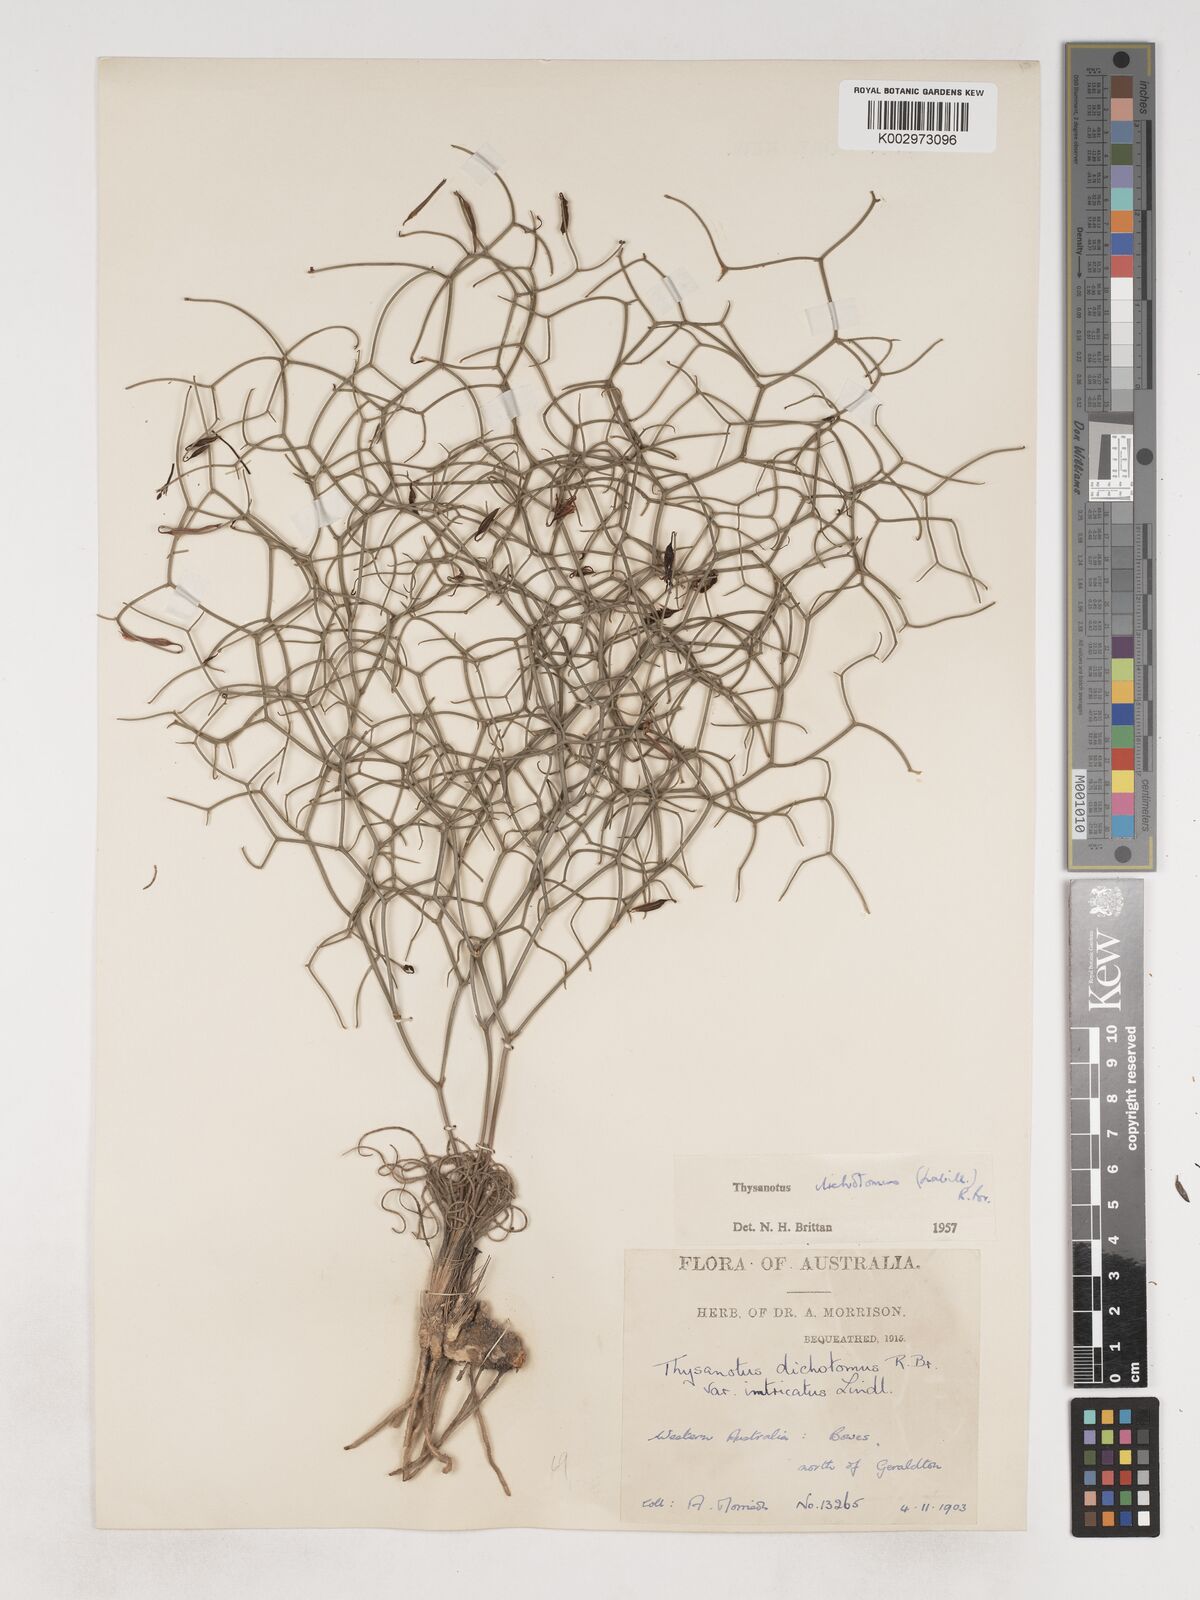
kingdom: Plantae
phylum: Tracheophyta
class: Liliopsida
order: Asparagales
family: Asparagaceae
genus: Thysanotus
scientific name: Thysanotus dichotomus
